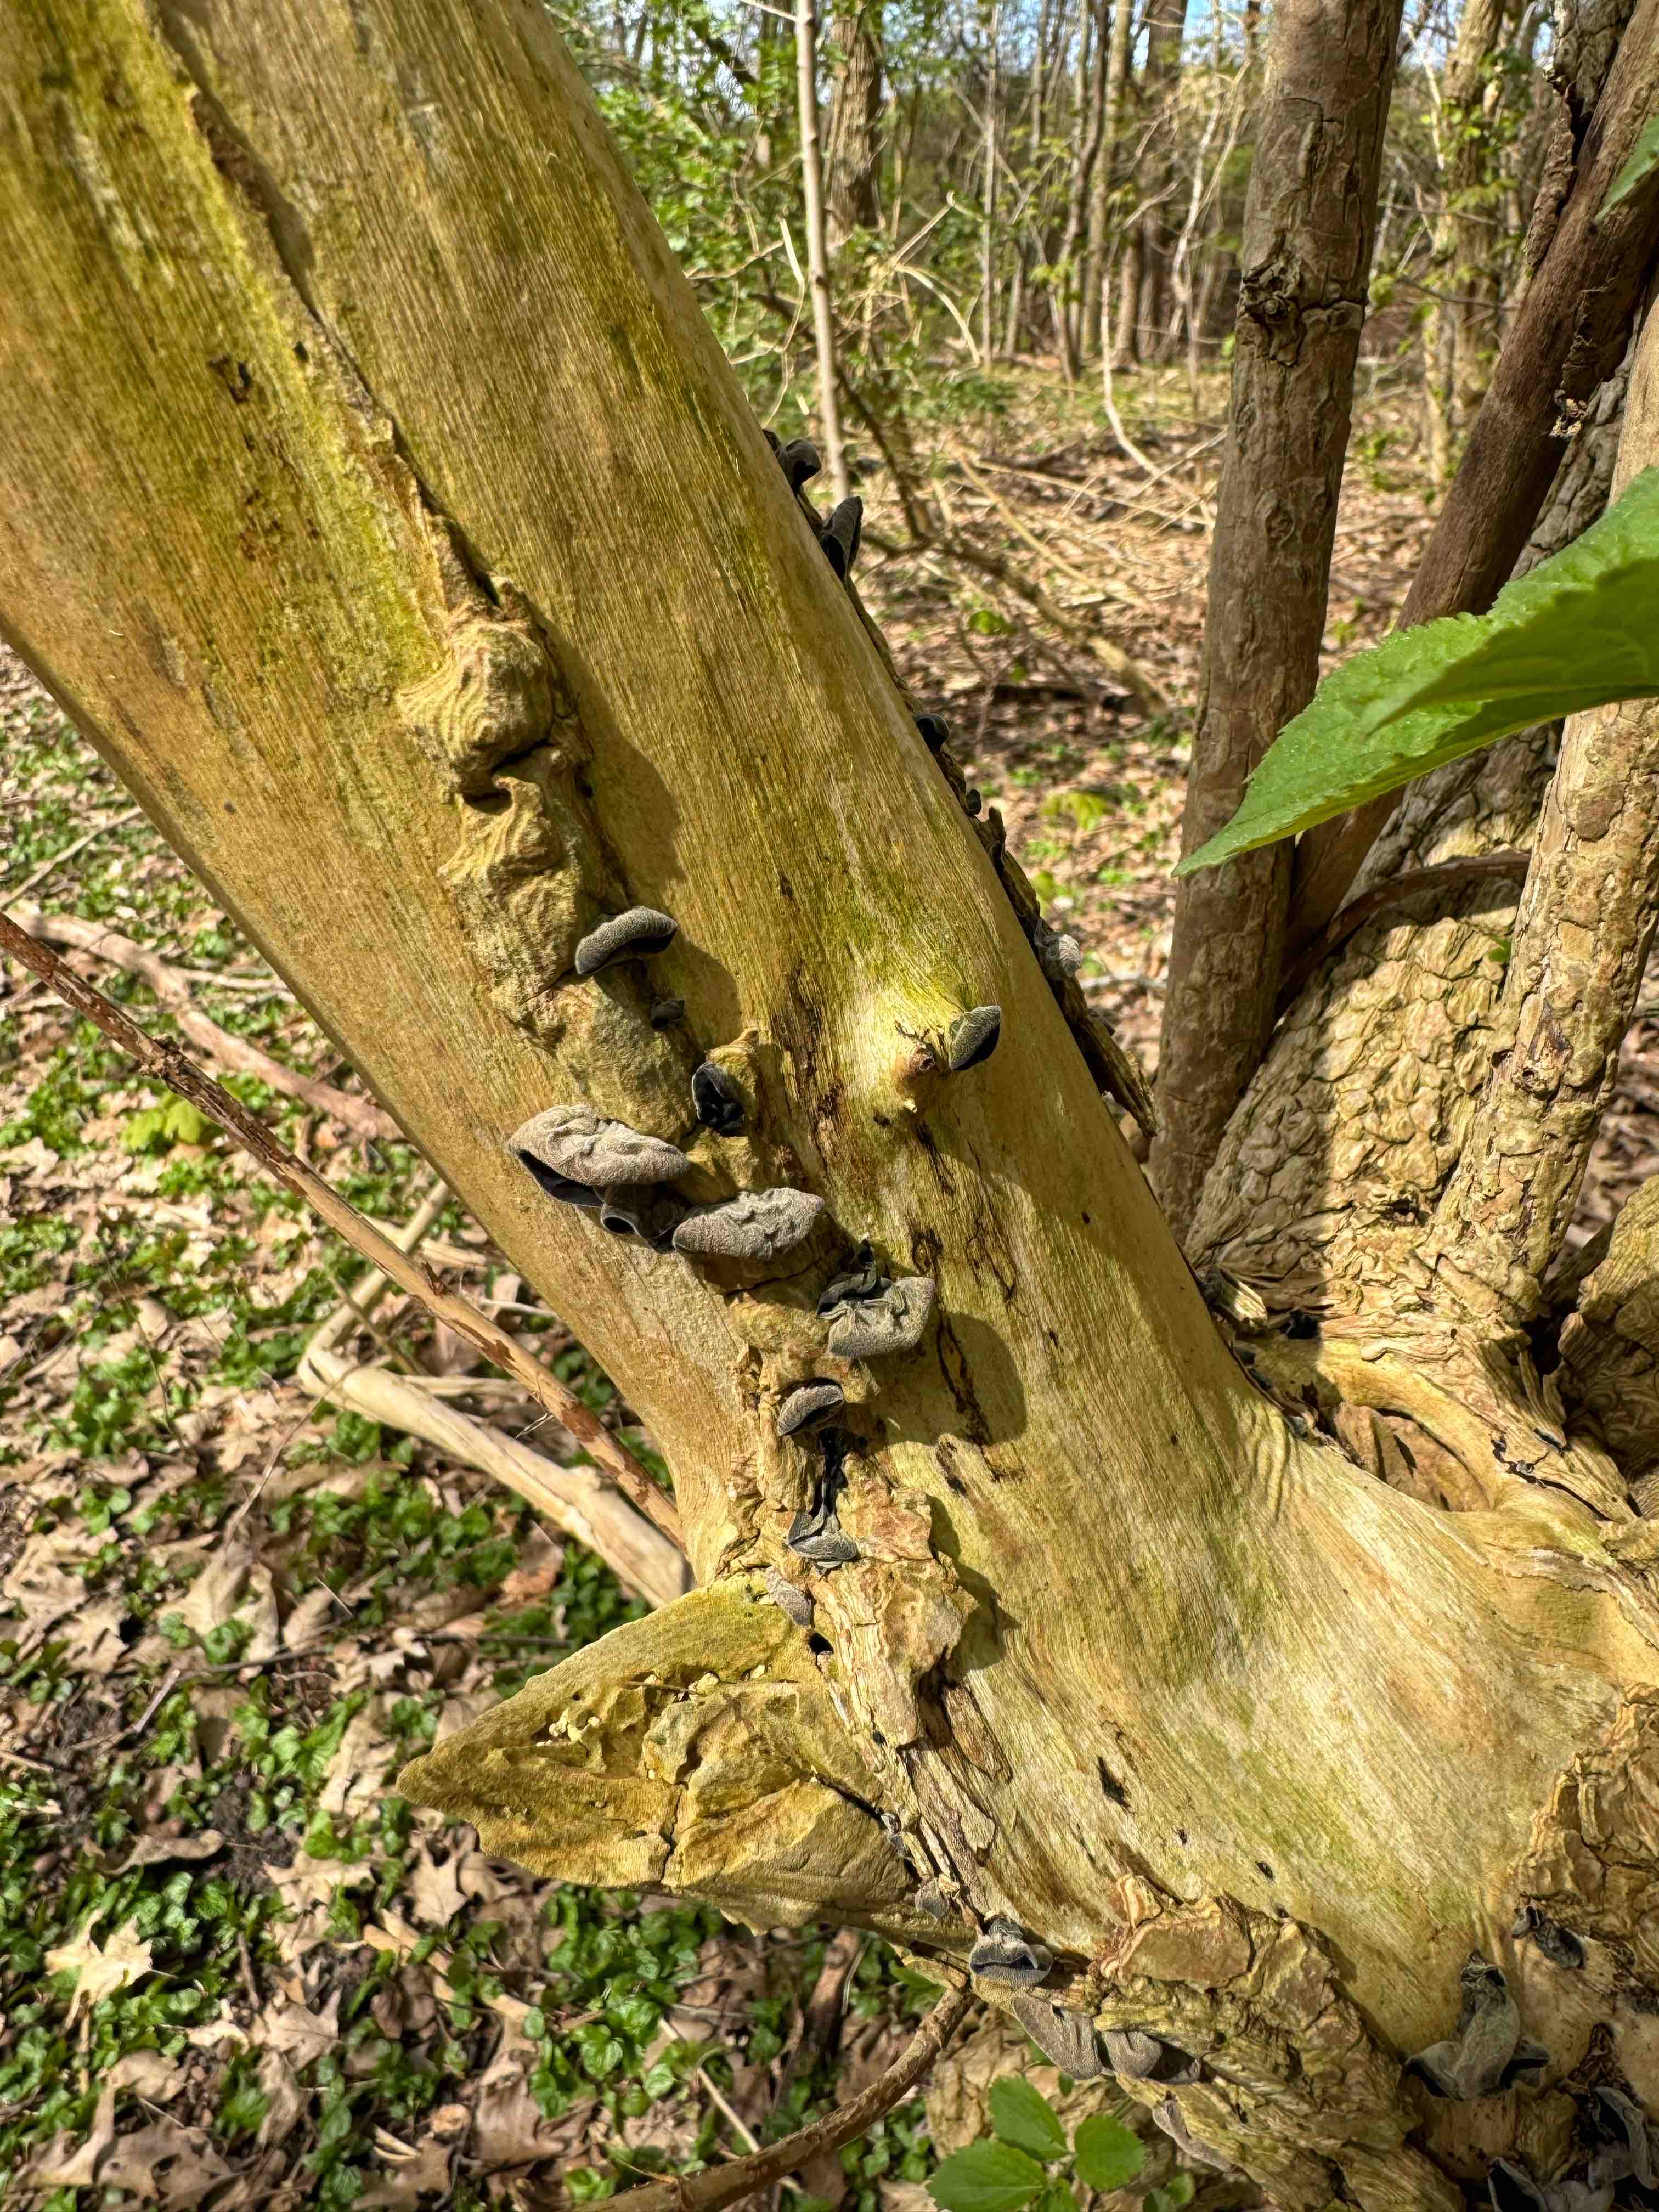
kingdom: Fungi
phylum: Basidiomycota
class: Agaricomycetes
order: Auriculariales
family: Auriculariaceae
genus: Auricularia
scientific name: Auricularia auricula-judae
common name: almindelig judasøre
